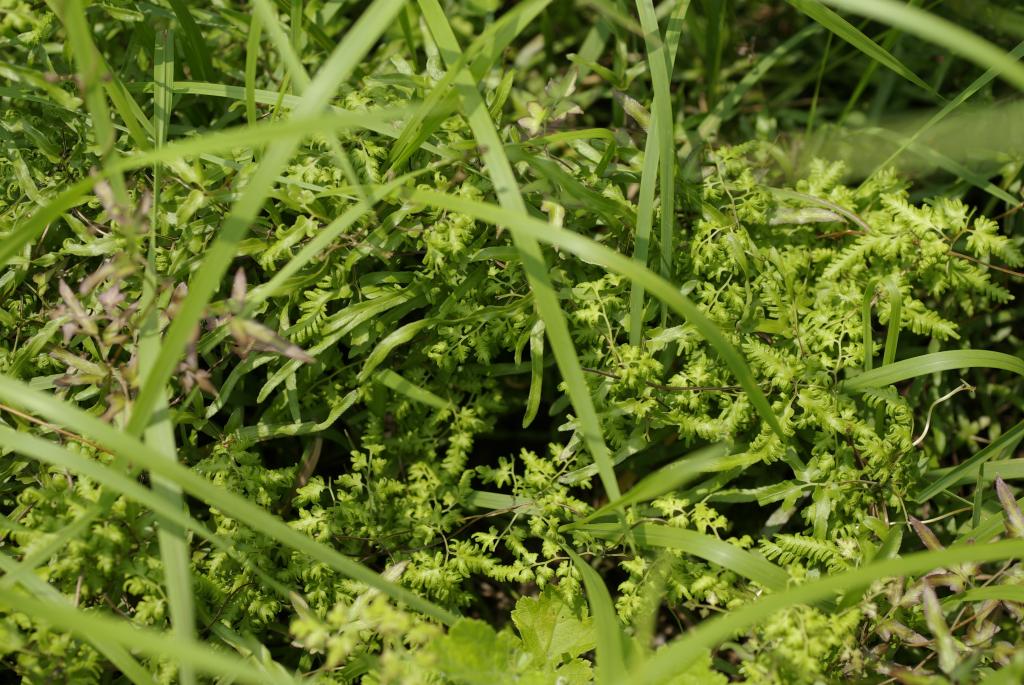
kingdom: Plantae
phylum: Tracheophyta
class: Polypodiopsida
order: Schizaeales
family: Lygodiaceae
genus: Lygodium
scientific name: Lygodium japonicum
